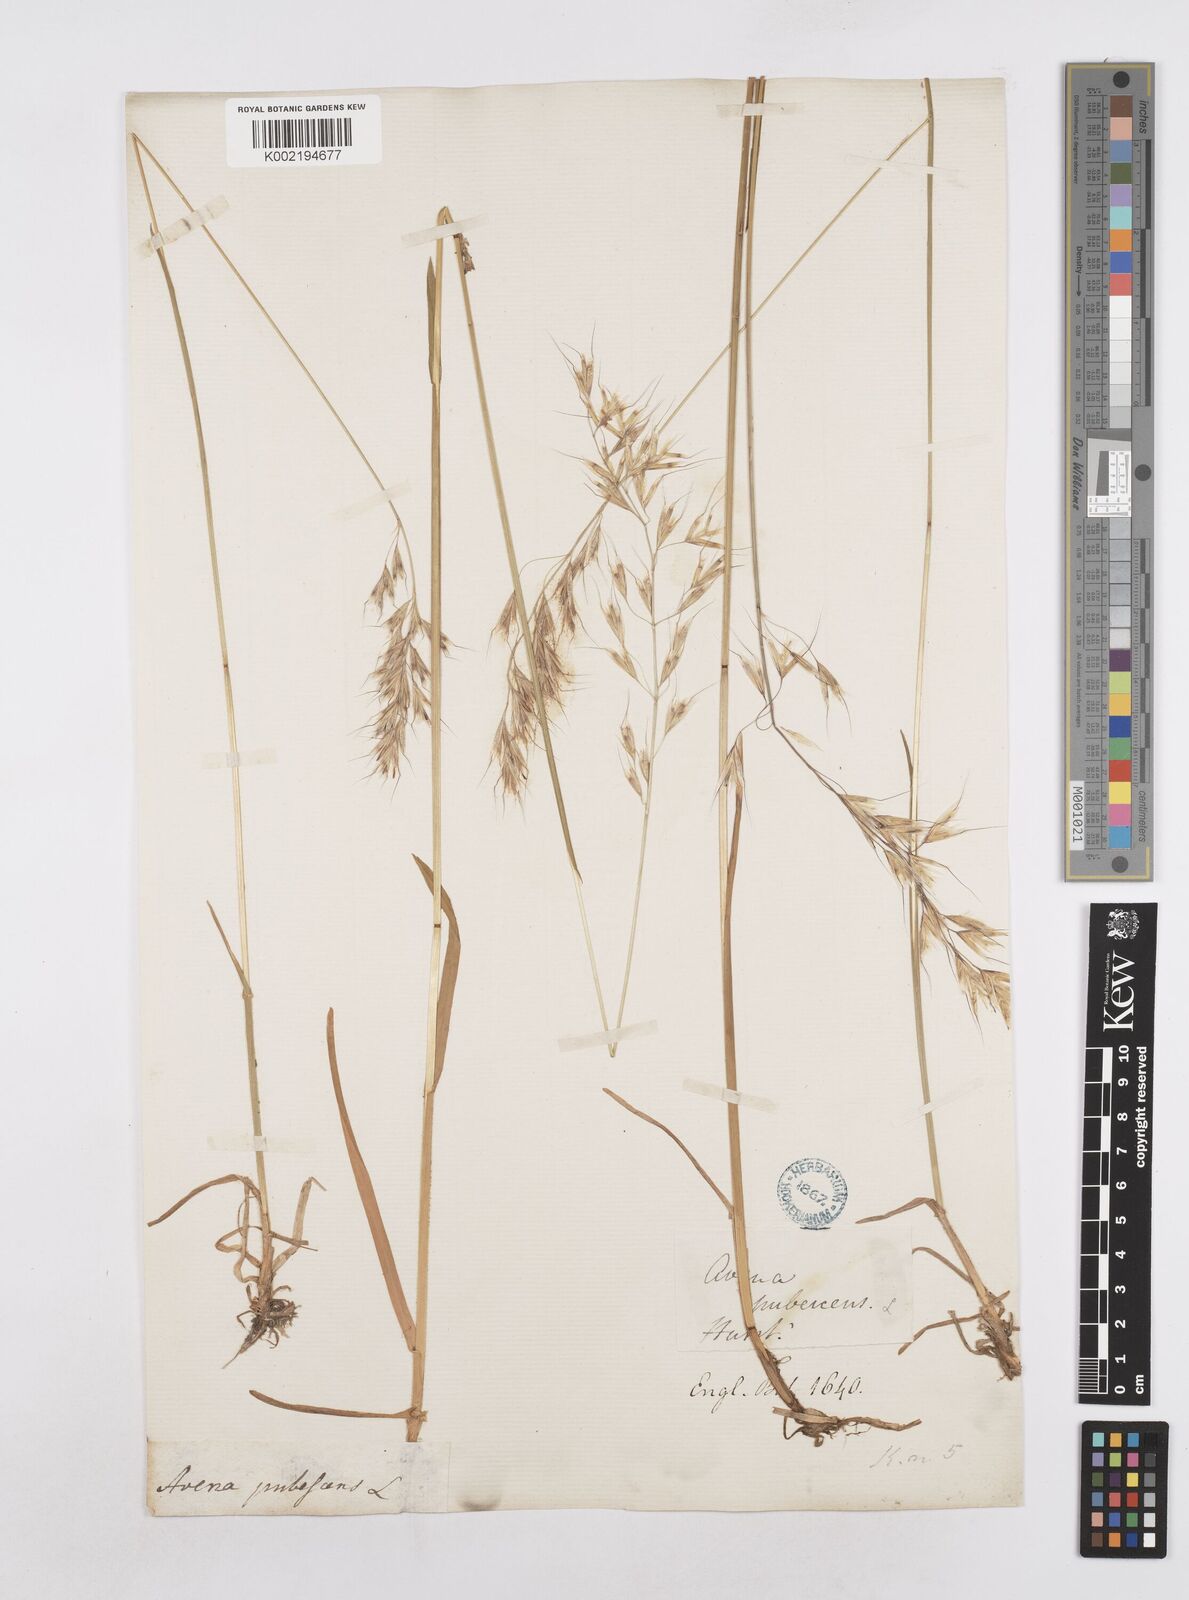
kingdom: Plantae
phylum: Tracheophyta
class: Liliopsida
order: Poales
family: Poaceae
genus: Avenula
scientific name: Avenula pubescens
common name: Downy alpine oatgrass
